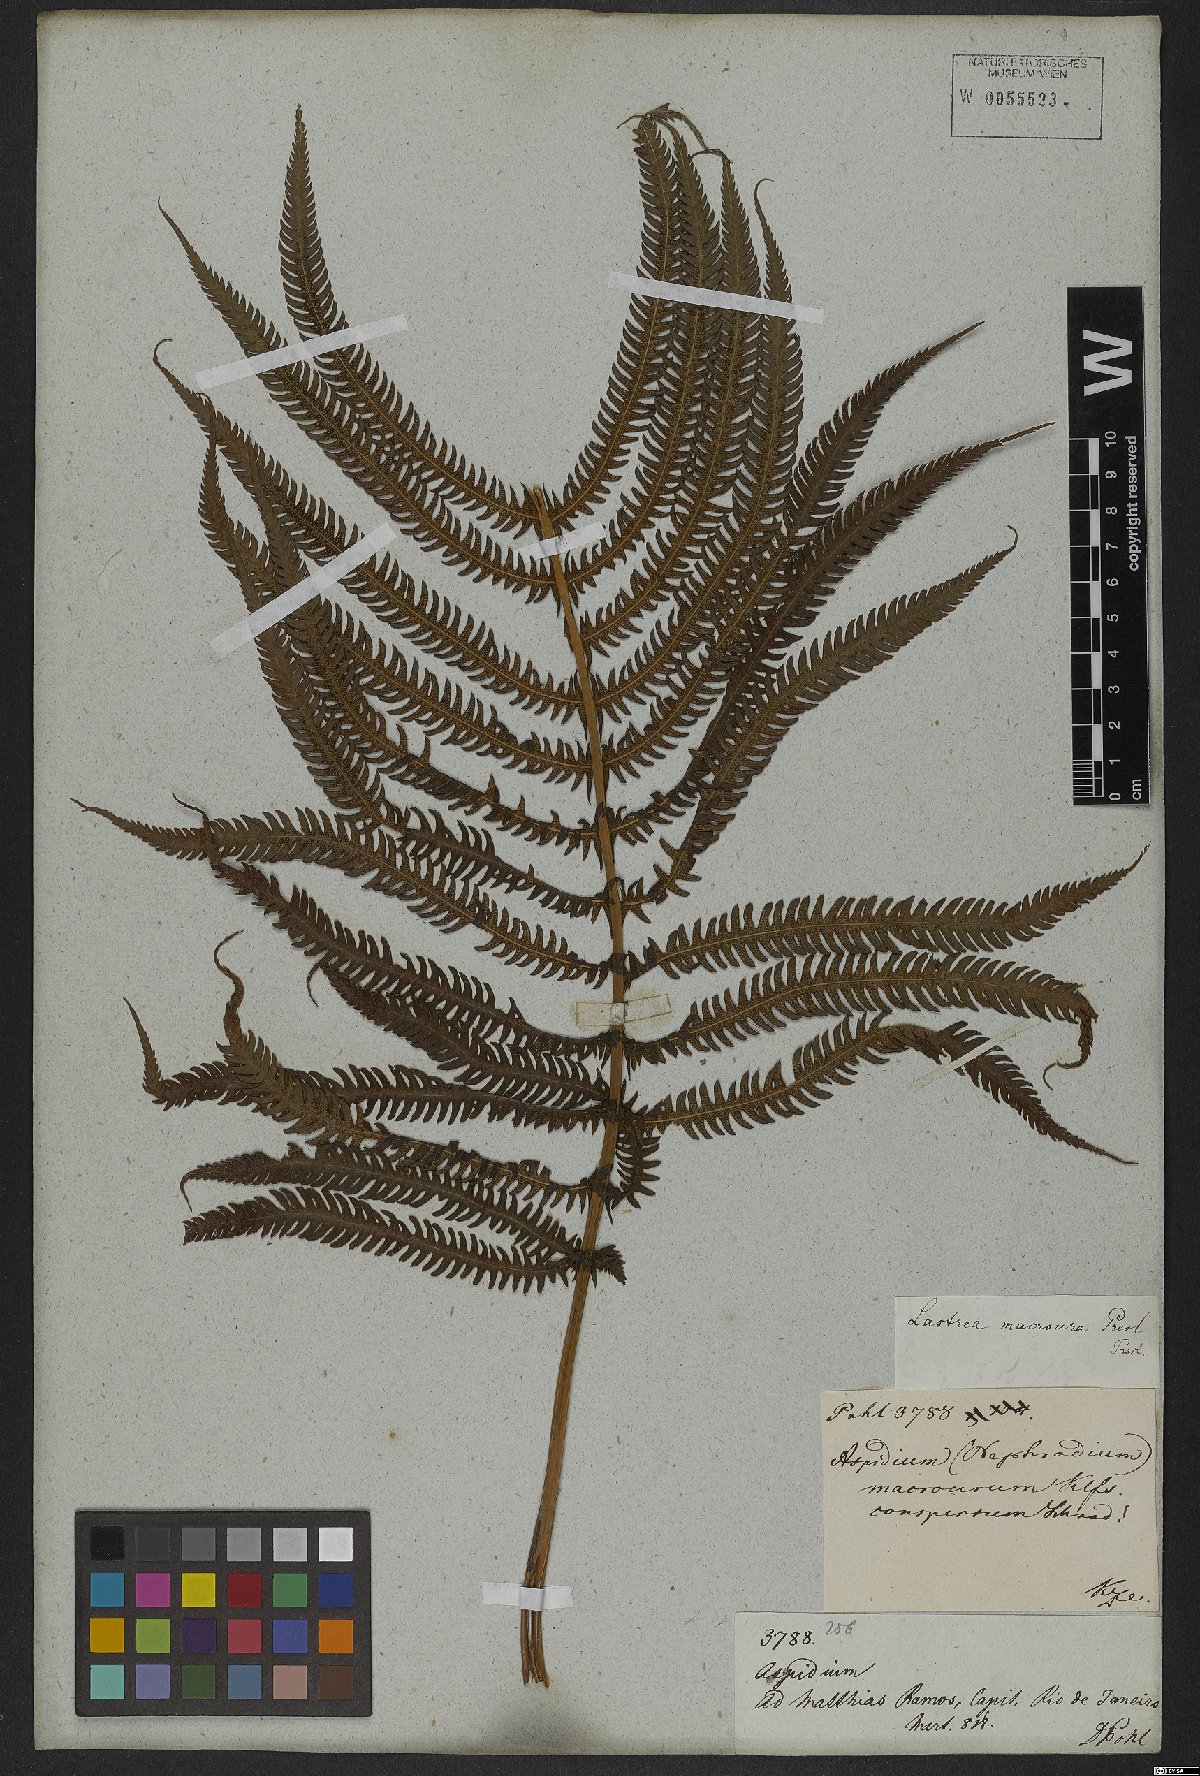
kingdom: Plantae
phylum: Tracheophyta
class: Polypodiopsida
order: Polypodiales
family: Thelypteridaceae
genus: Pelazoneuron
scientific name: Pelazoneuron patens
